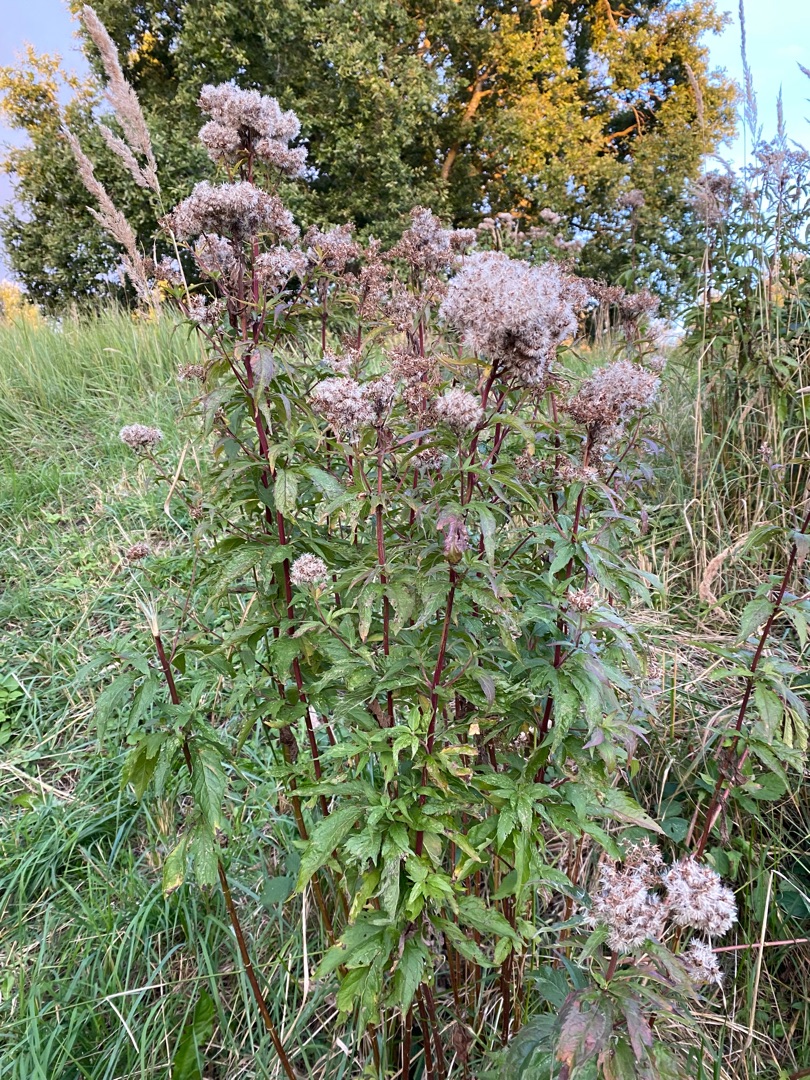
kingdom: Plantae
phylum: Tracheophyta
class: Magnoliopsida
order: Asterales
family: Asteraceae
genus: Eupatorium
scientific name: Eupatorium cannabinum
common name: Hjortetrøst
